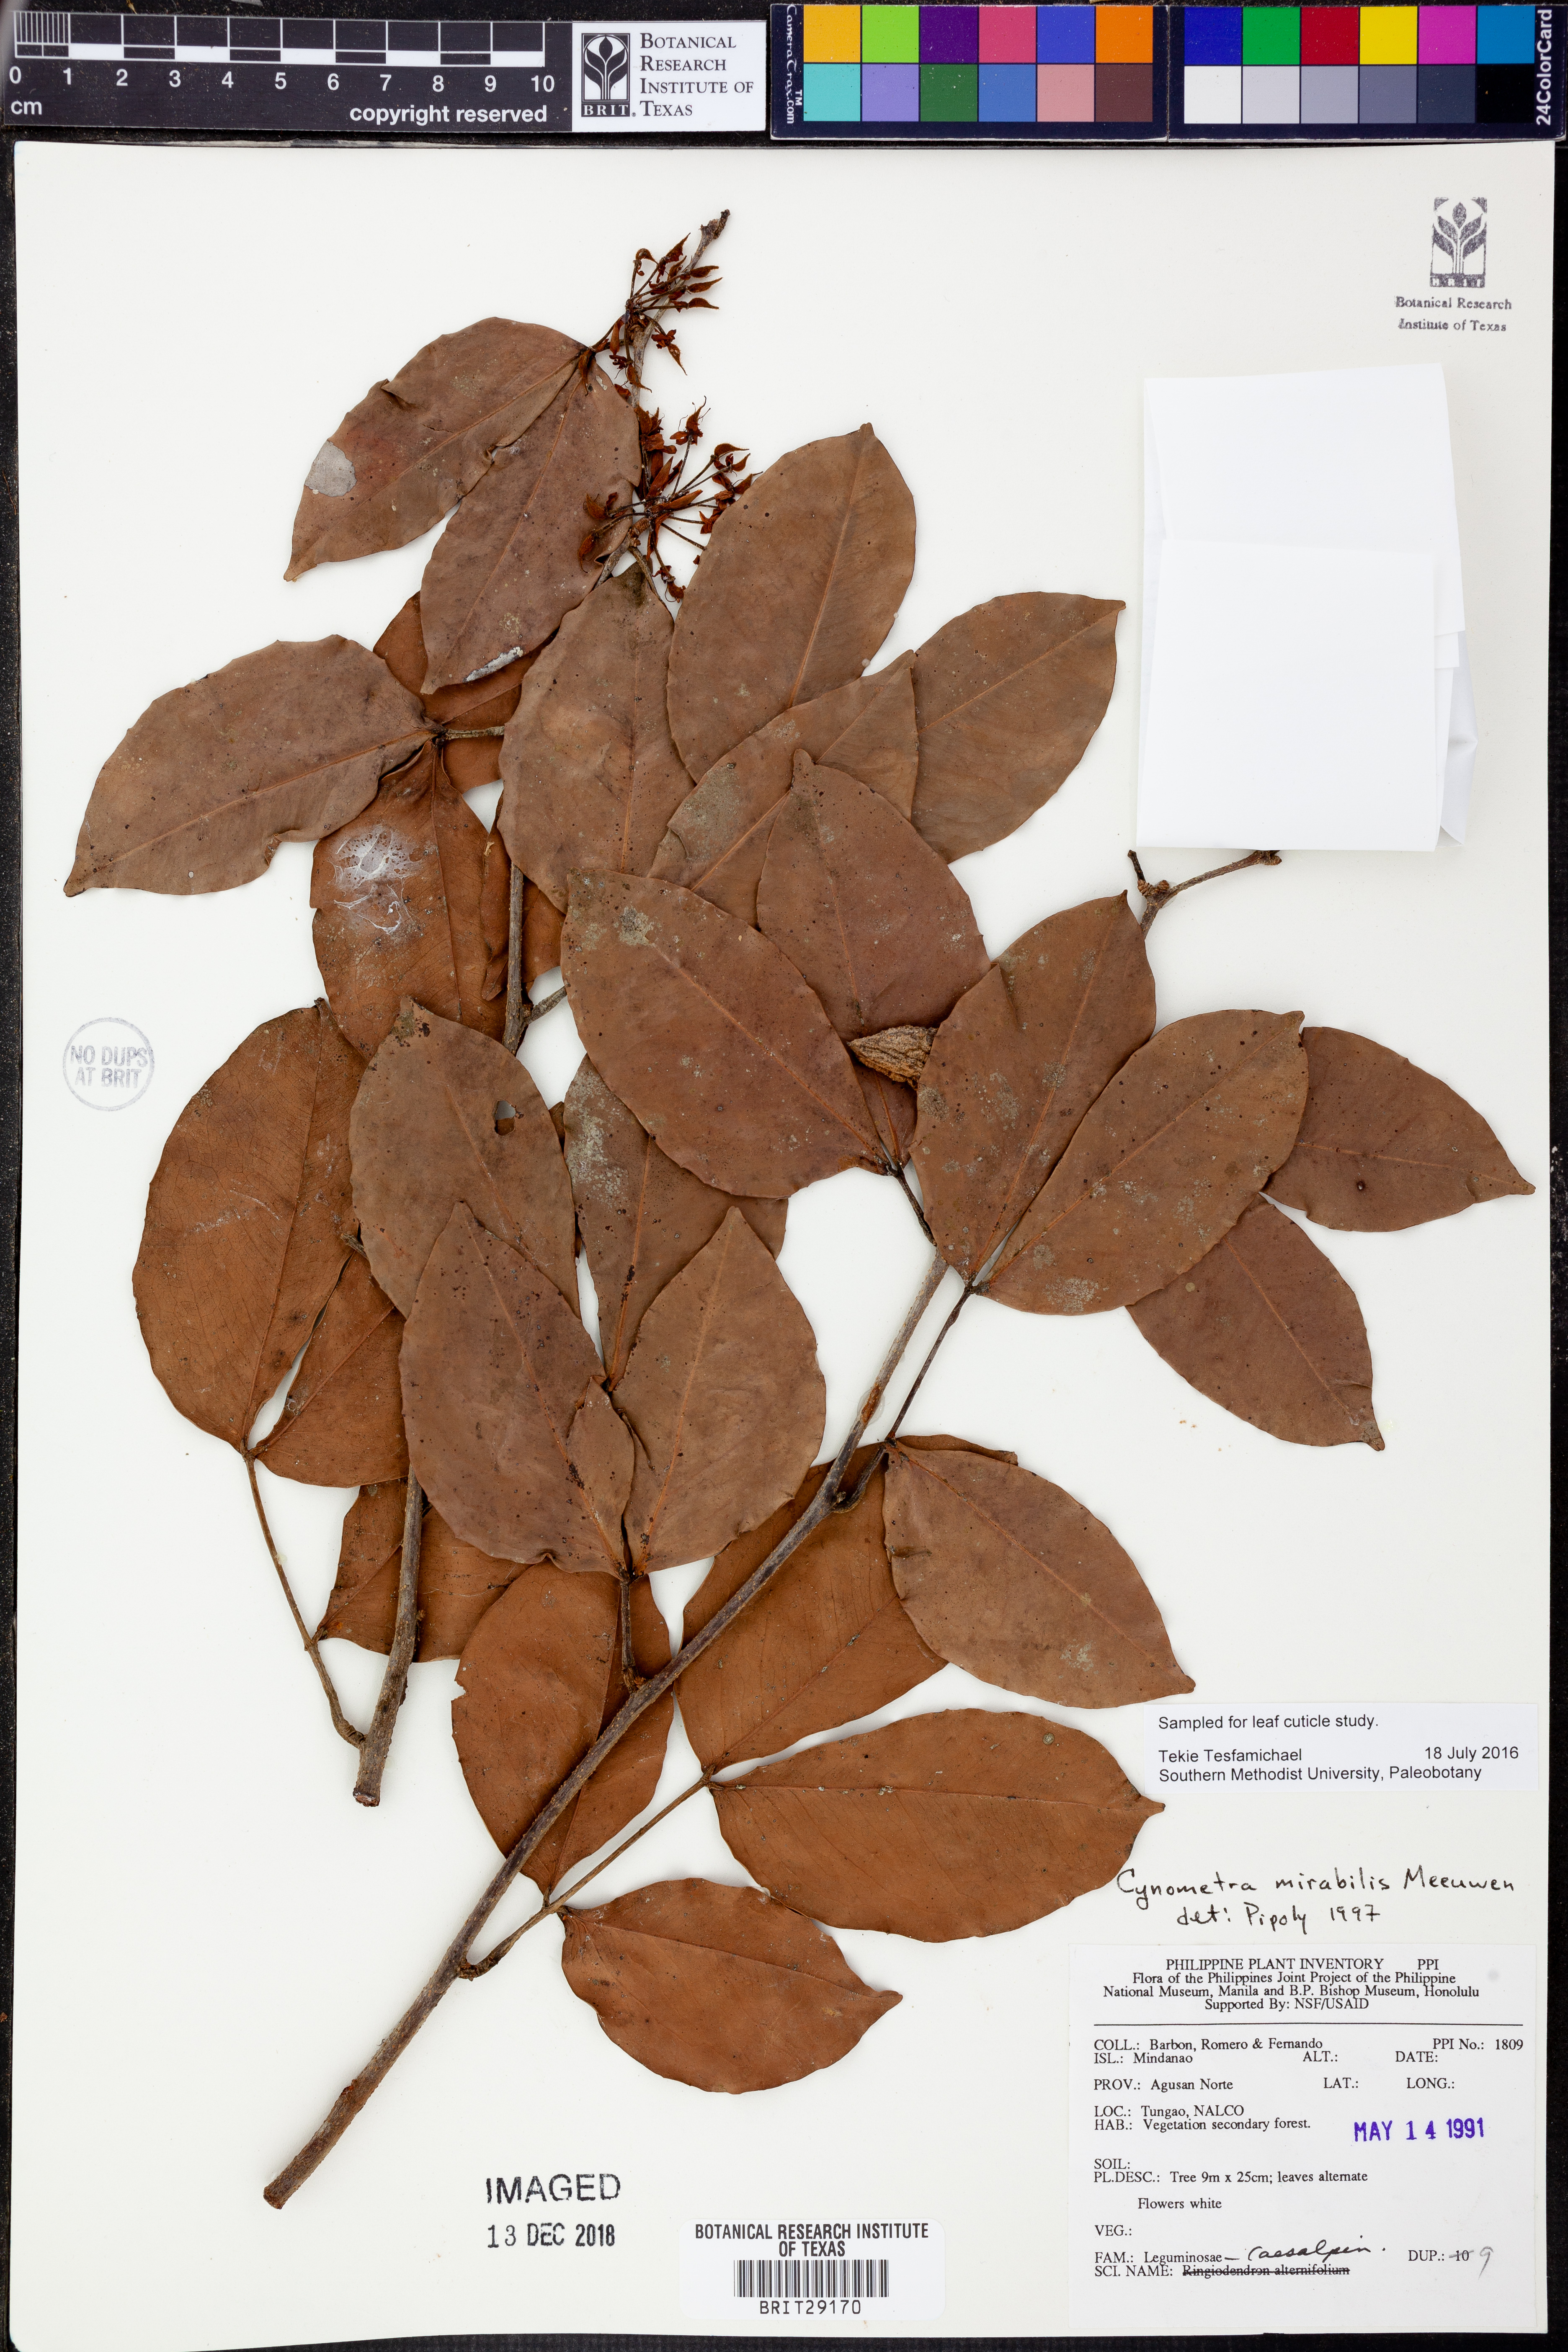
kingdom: Plantae
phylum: Tracheophyta
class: Magnoliopsida
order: Fabales
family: Fabaceae
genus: Cynometra
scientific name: Cynometra mirabilis
